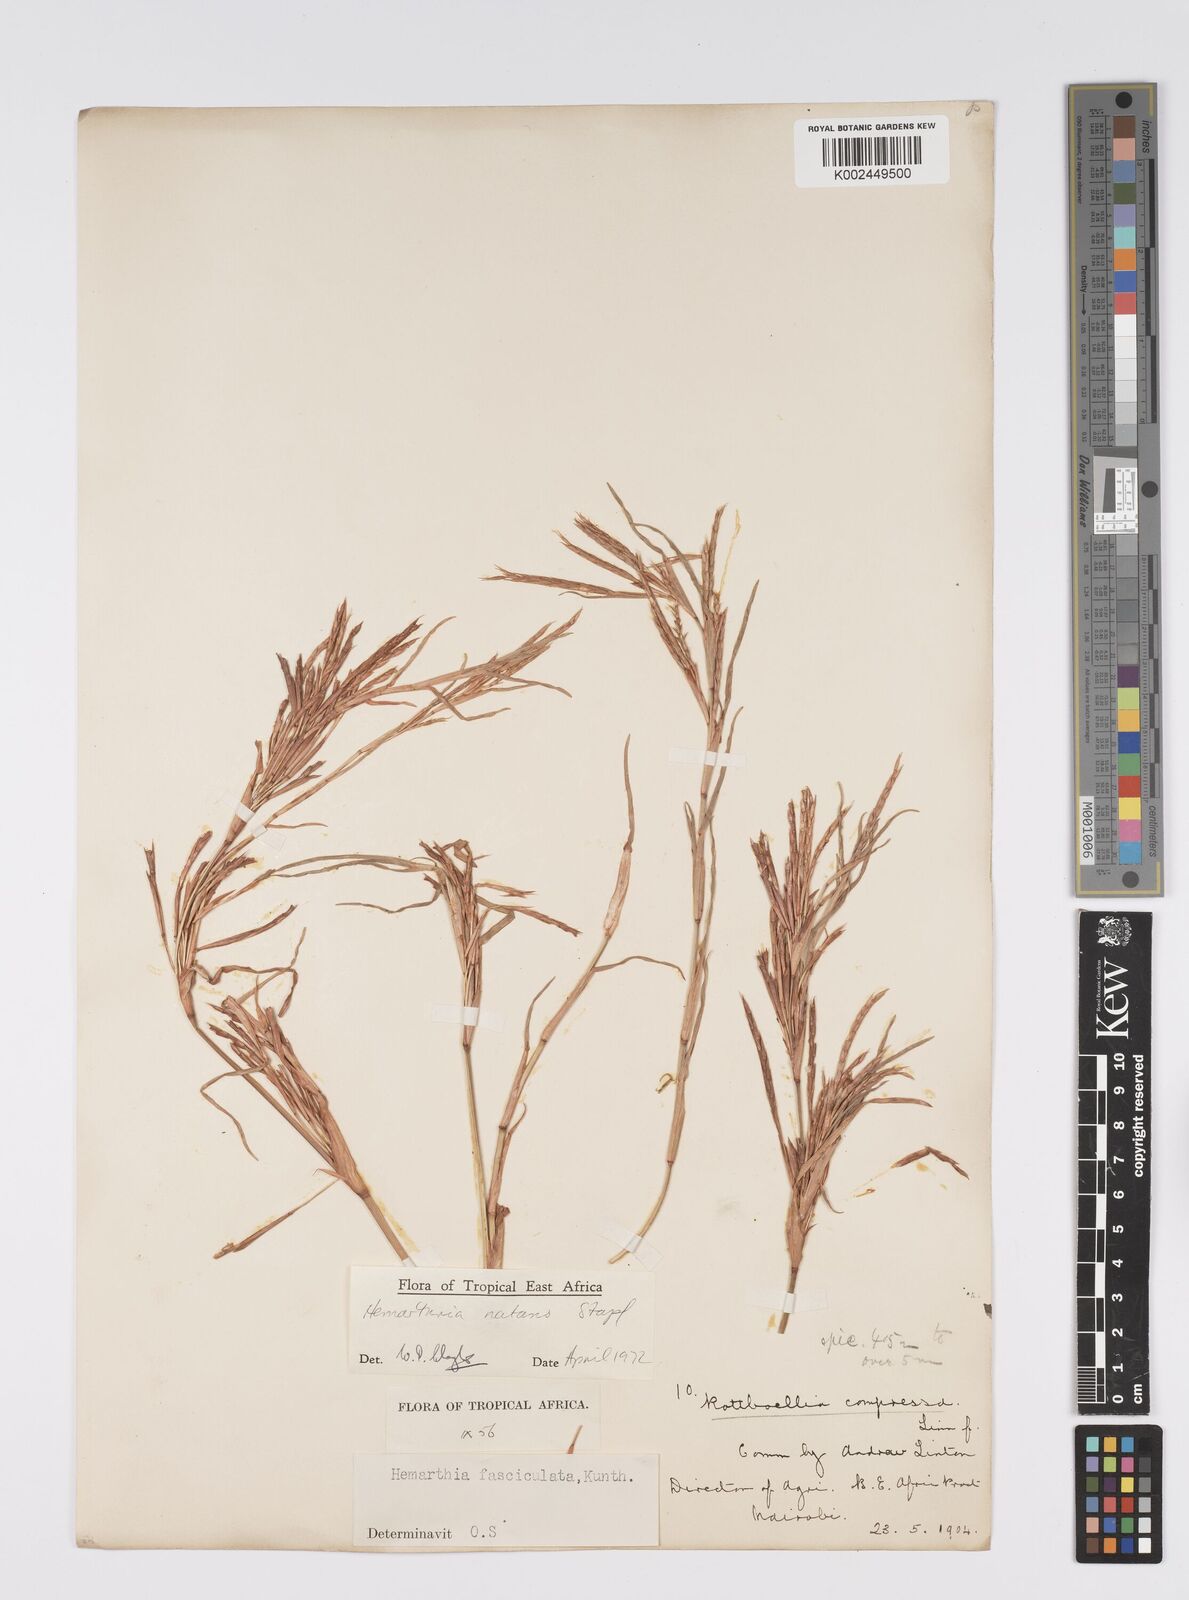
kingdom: Plantae
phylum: Tracheophyta
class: Liliopsida
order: Poales
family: Poaceae
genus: Hemarthria
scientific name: Hemarthria natans
